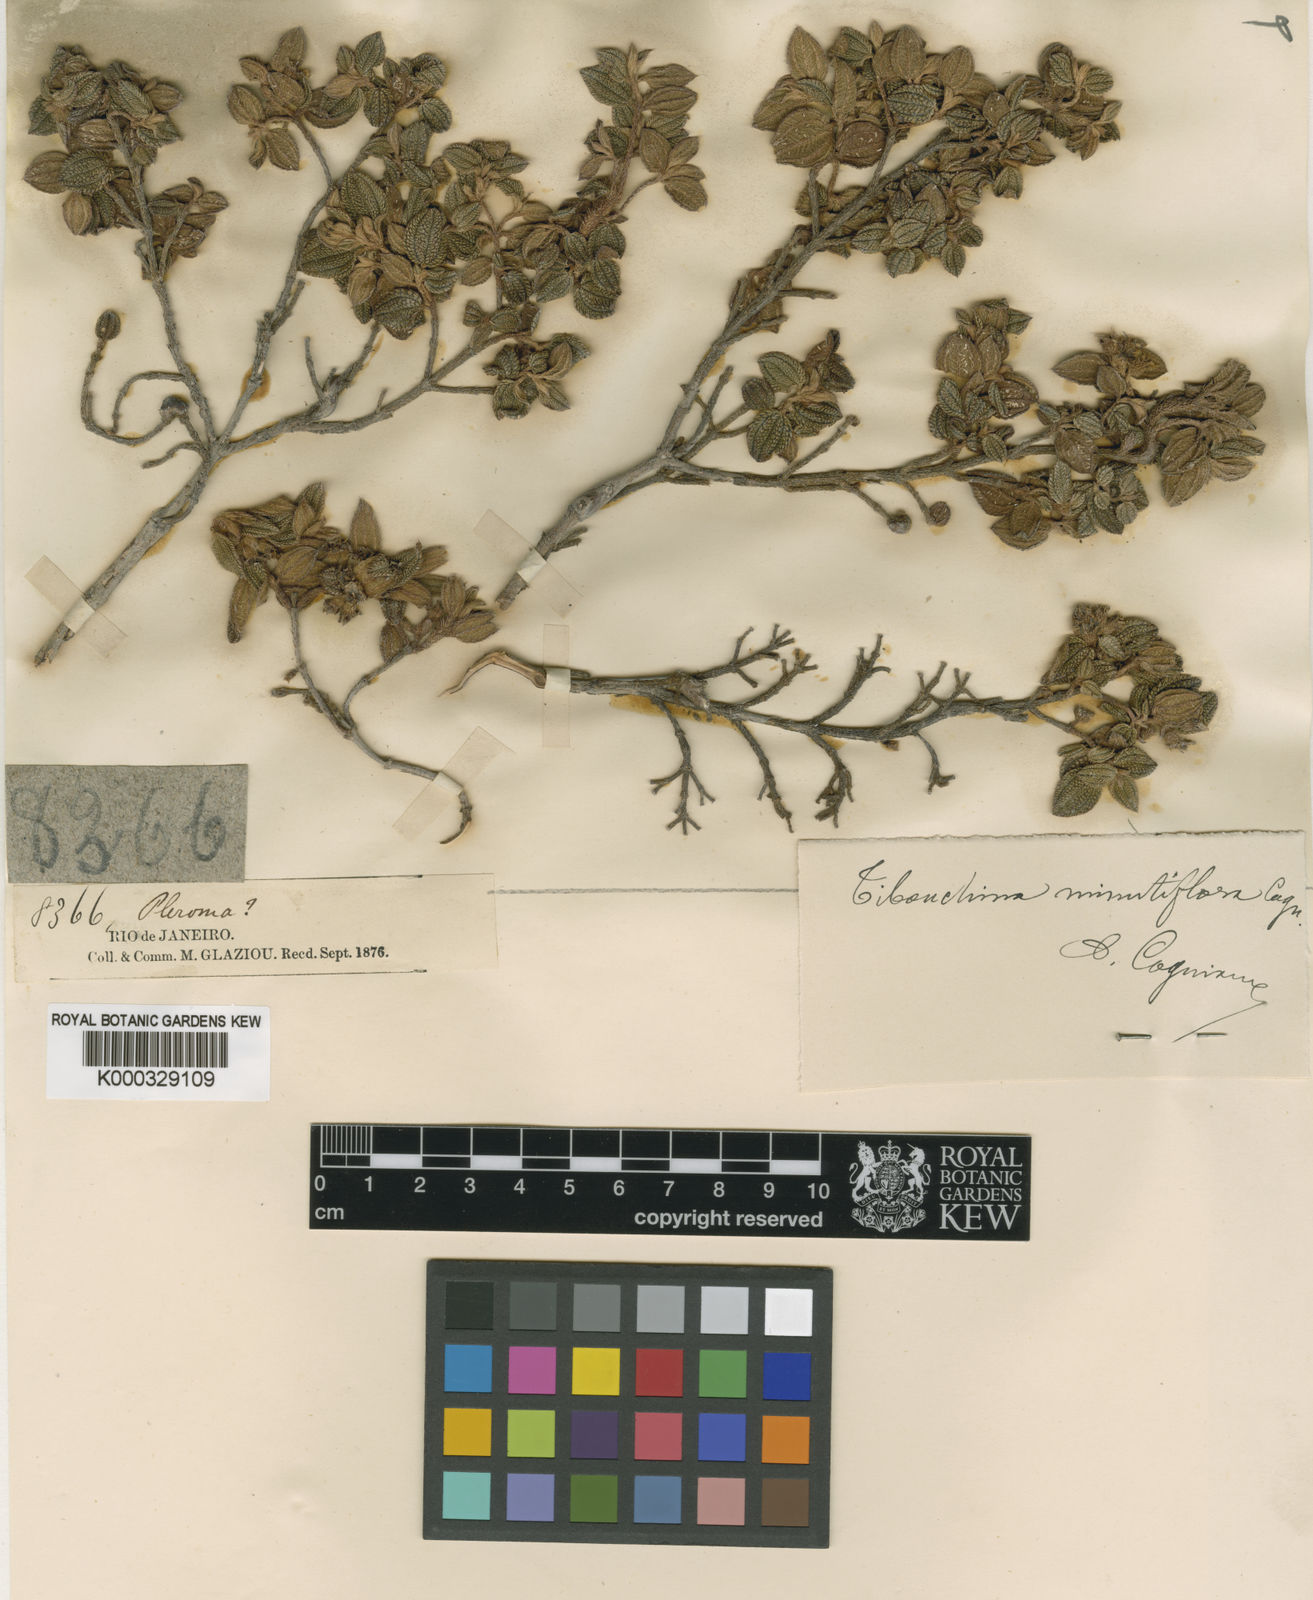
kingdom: Plantae
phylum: Tracheophyta
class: Magnoliopsida
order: Myrtales
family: Melastomataceae
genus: Pleroma
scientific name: Pleroma minutiflorum
